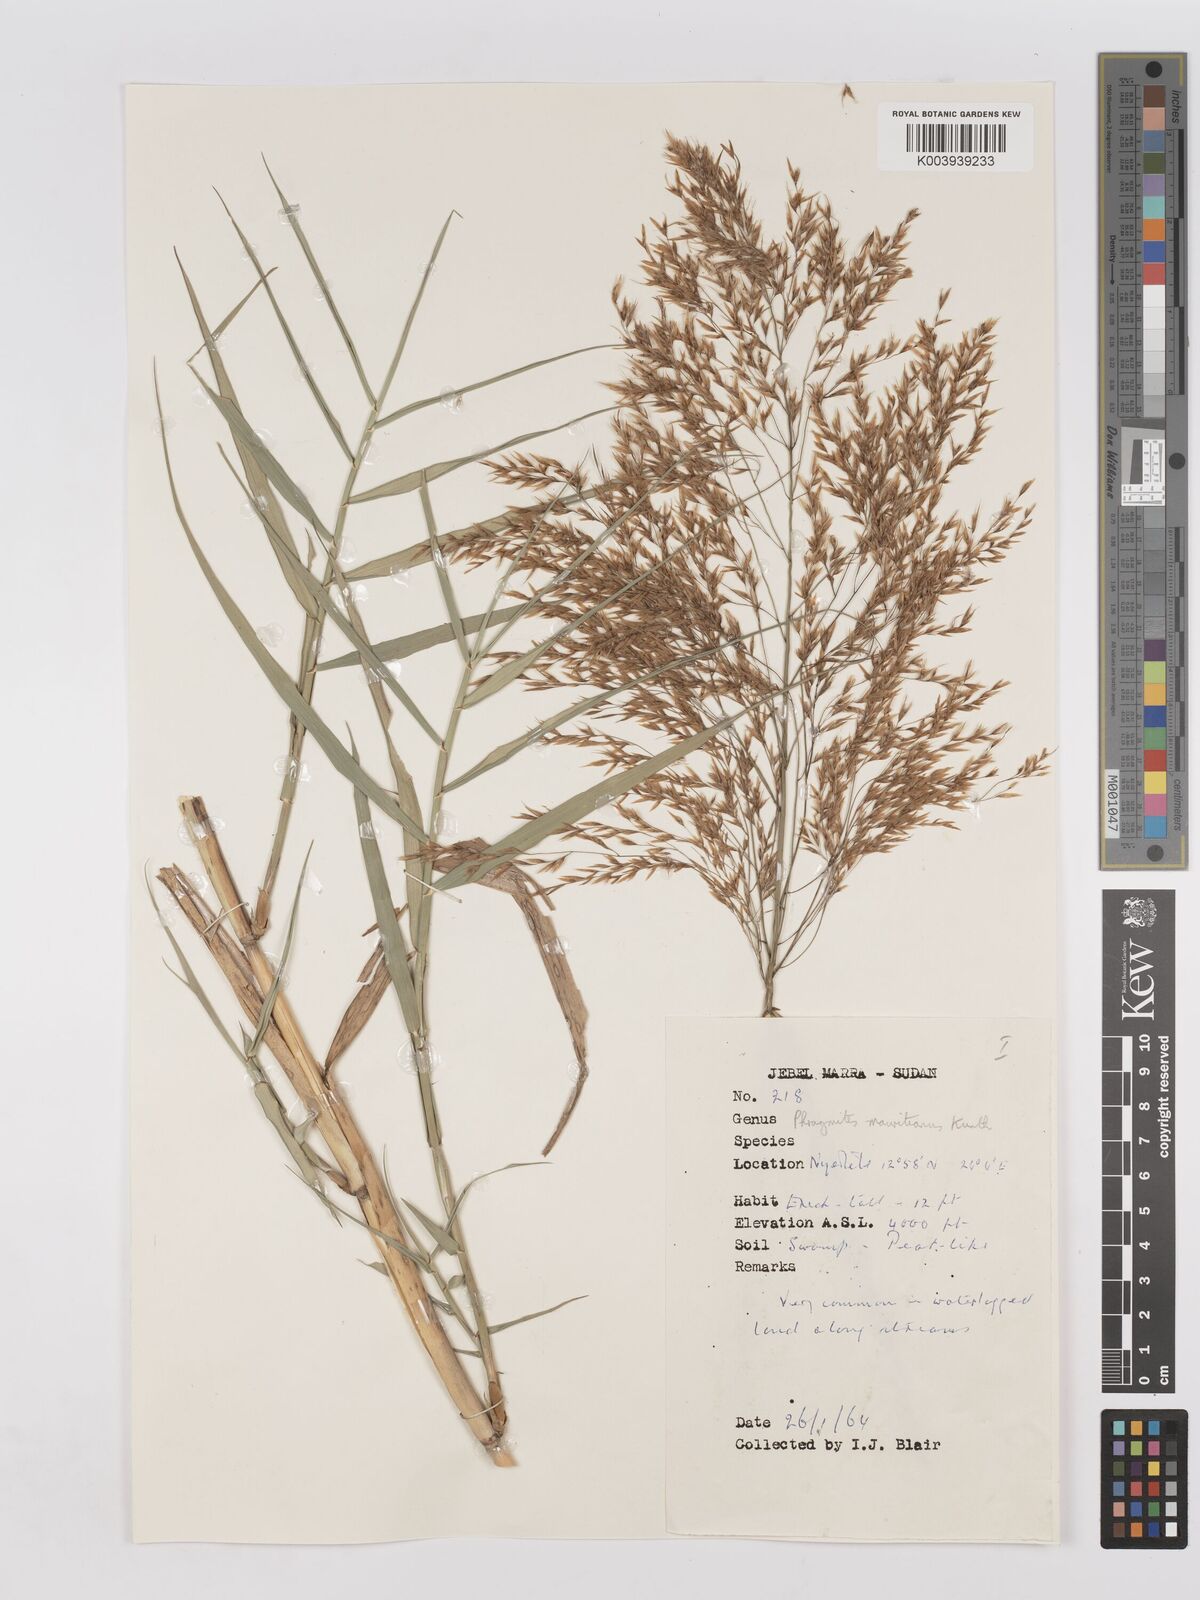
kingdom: Plantae
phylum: Tracheophyta
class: Liliopsida
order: Poales
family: Poaceae
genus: Phragmites
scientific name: Phragmites karka
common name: Tropical reed
